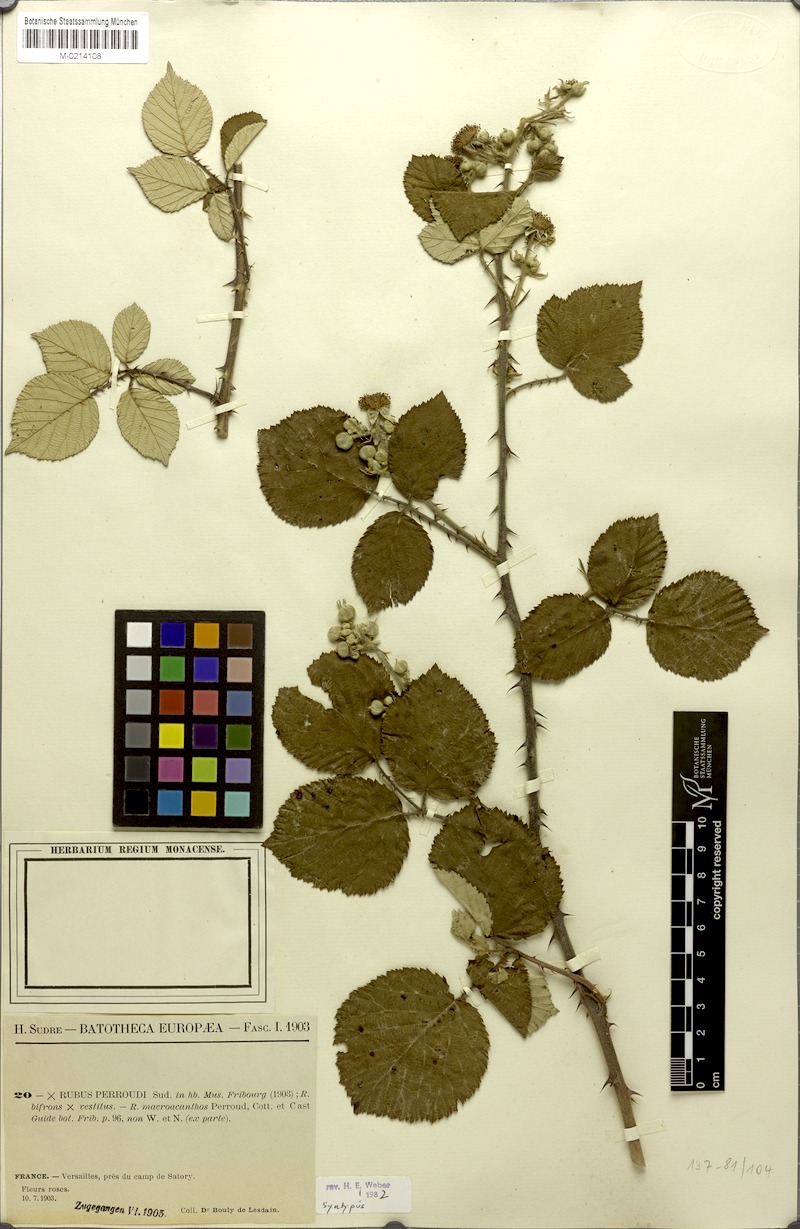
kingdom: Plantae
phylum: Tracheophyta
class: Magnoliopsida
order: Rosales
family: Rosaceae
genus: Rubus
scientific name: Rubus perroudii
